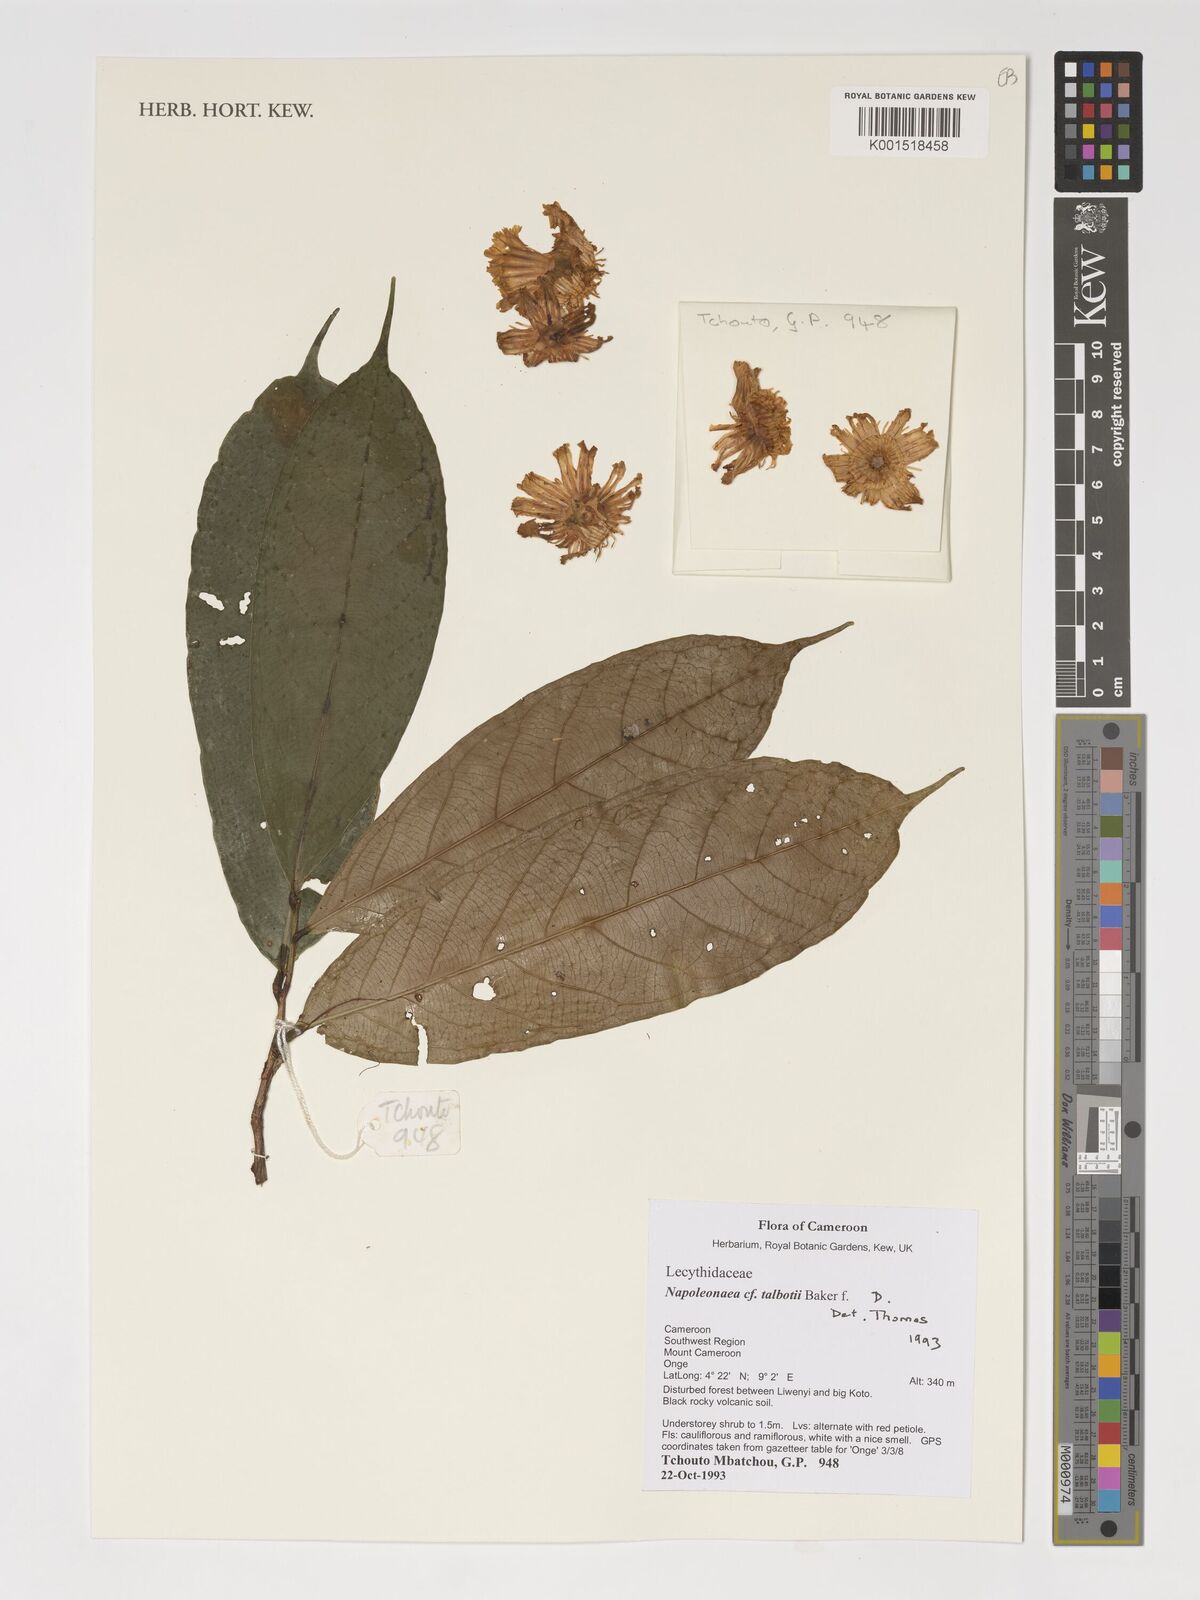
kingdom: Plantae
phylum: Tracheophyta
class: Magnoliopsida
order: Ericales
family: Lecythidaceae
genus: Napoleonaea
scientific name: Napoleonaea talbotii
